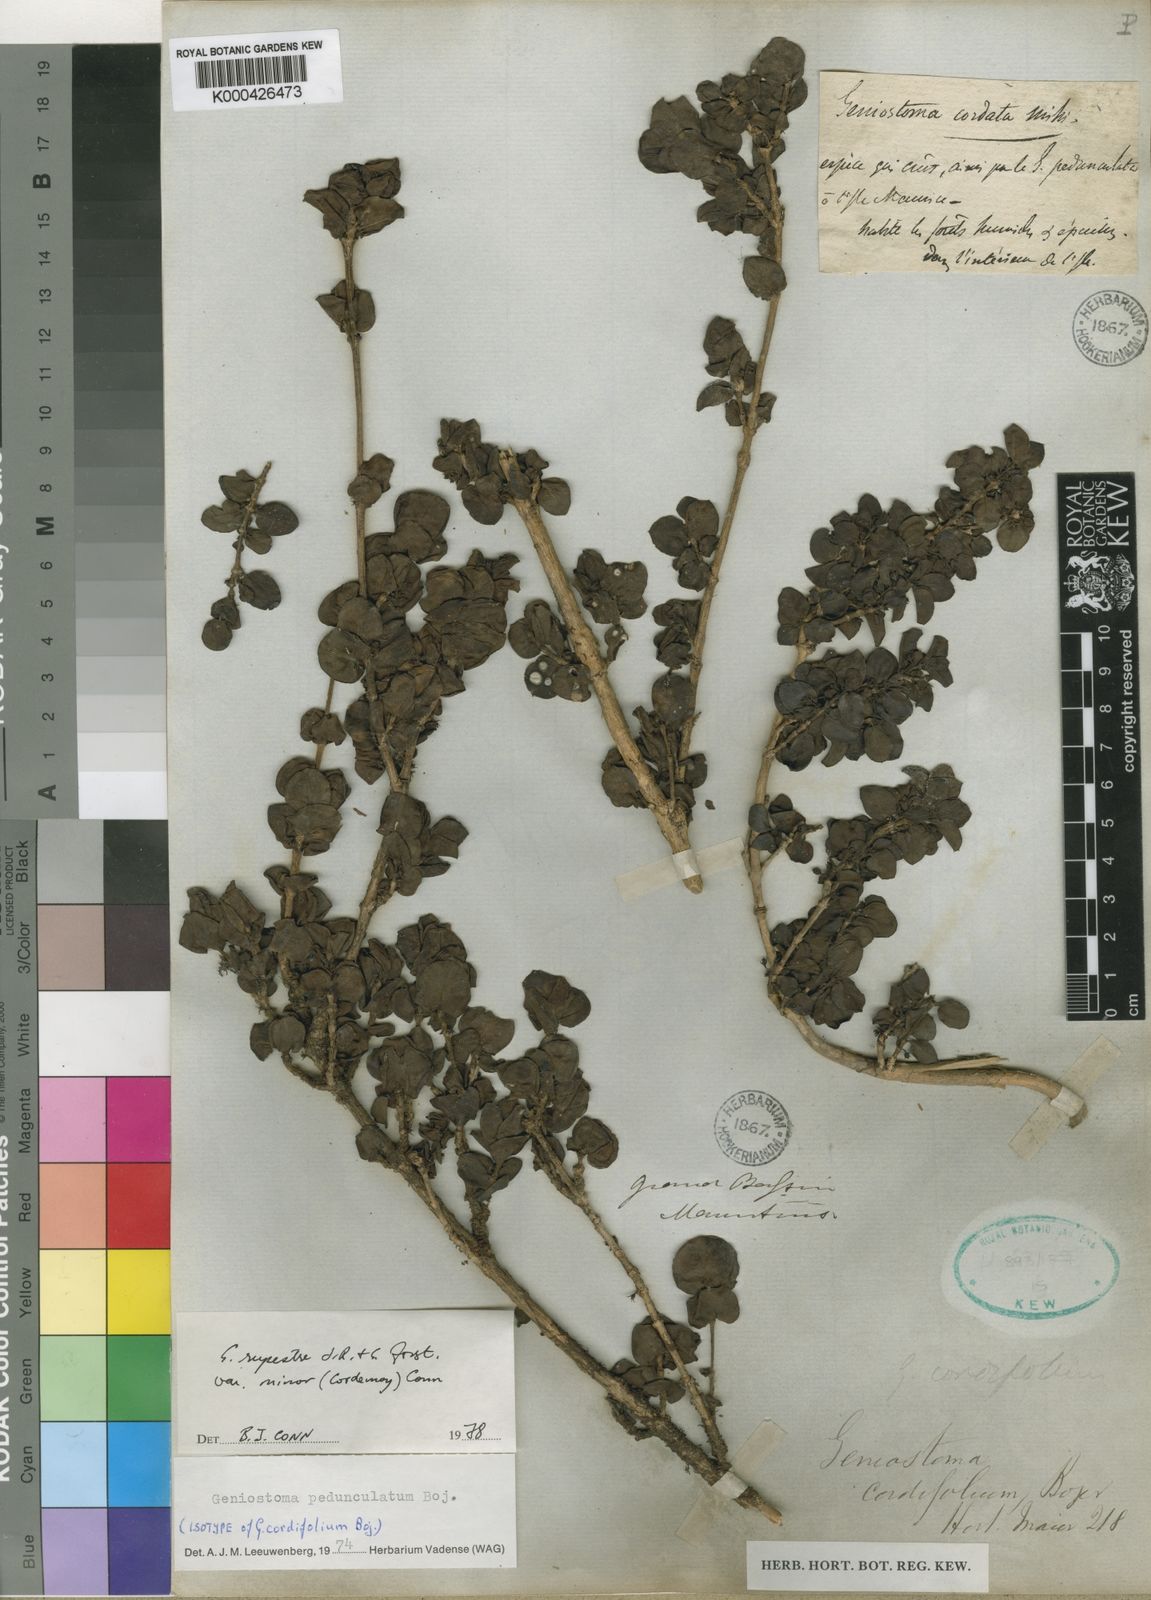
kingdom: Plantae
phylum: Tracheophyta
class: Magnoliopsida
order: Gentianales
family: Loganiaceae
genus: Geniostoma
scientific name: Geniostoma pedunculatum
